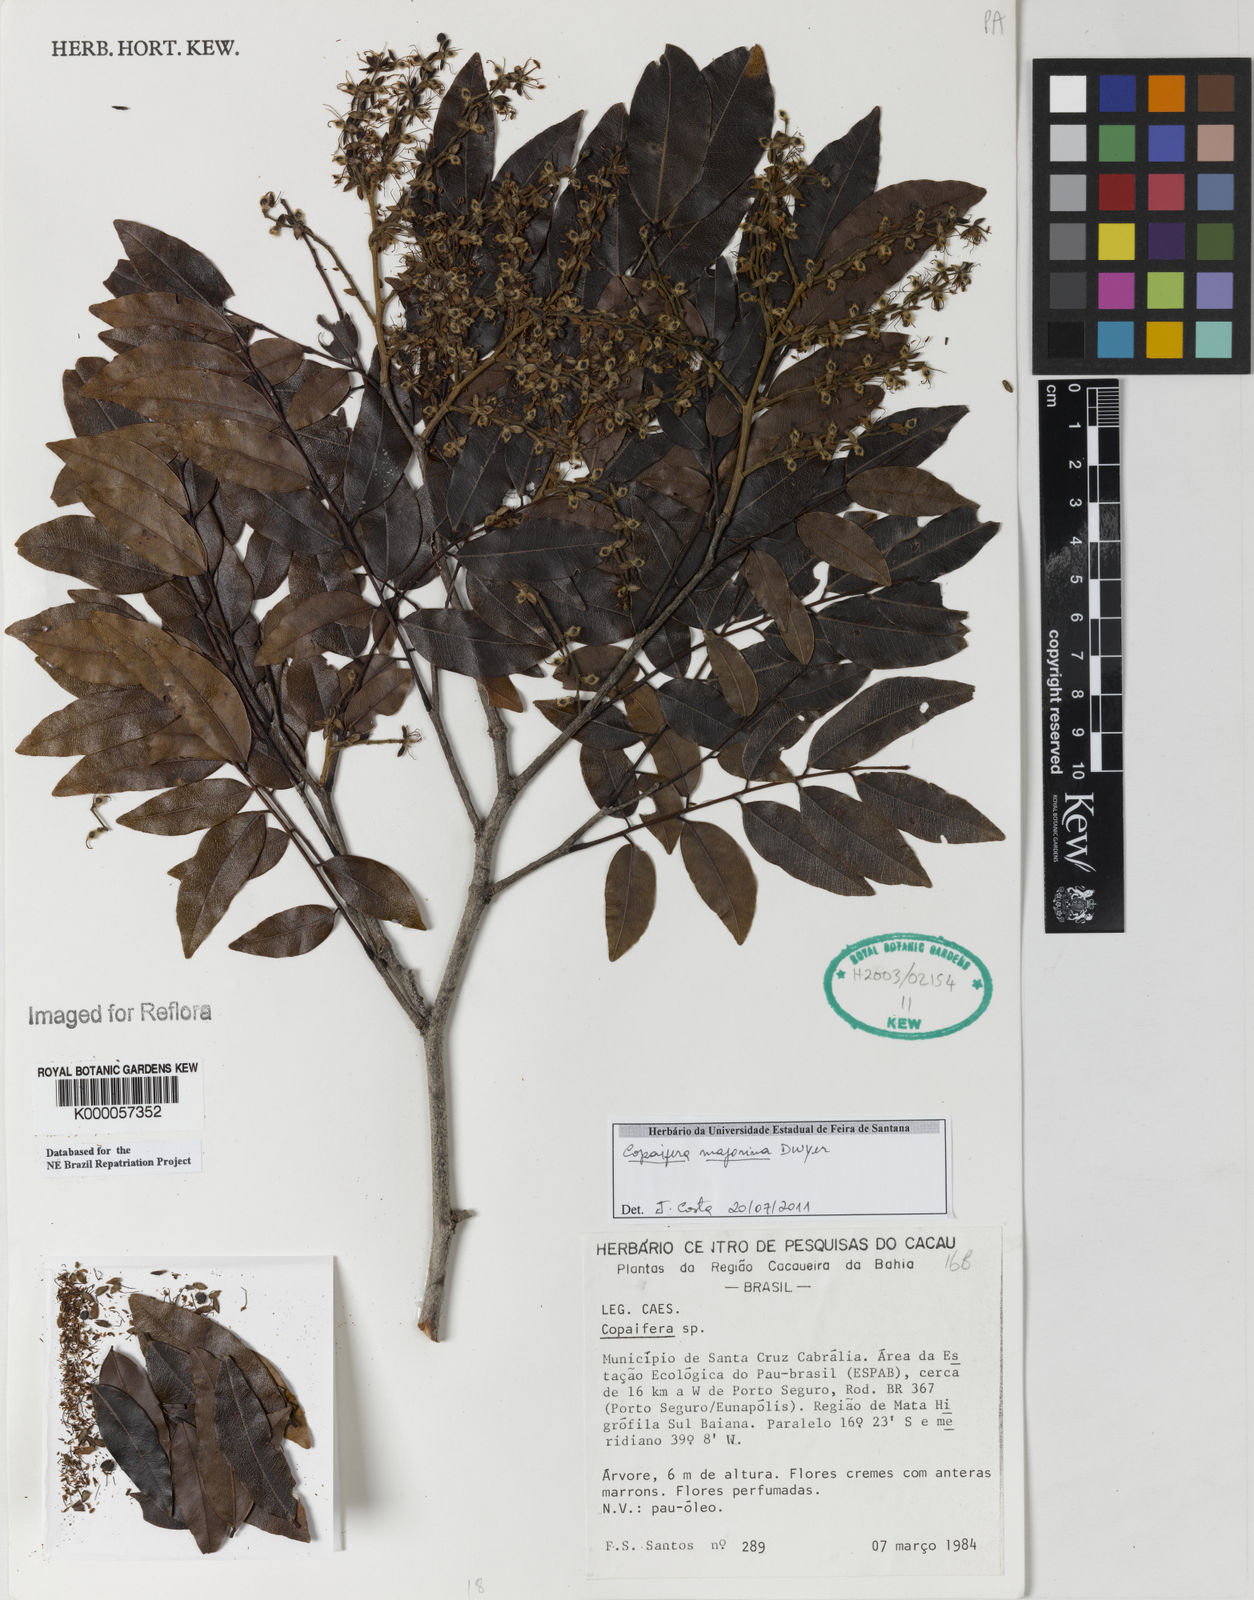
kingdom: Plantae
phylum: Tracheophyta
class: Magnoliopsida
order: Fabales
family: Fabaceae
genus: Copaifera
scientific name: Copaifera majorina
